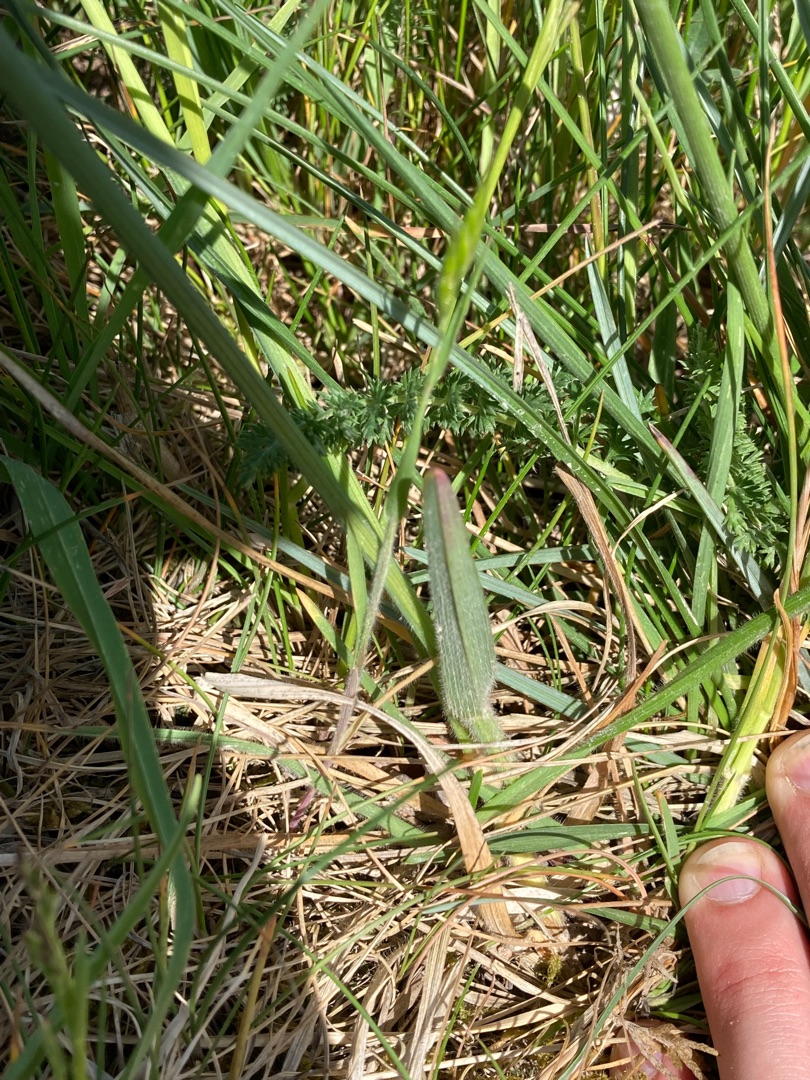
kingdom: Plantae
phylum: Tracheophyta
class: Liliopsida
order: Poales
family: Poaceae
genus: Avenula
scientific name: Avenula pubescens
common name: Dunet havre
